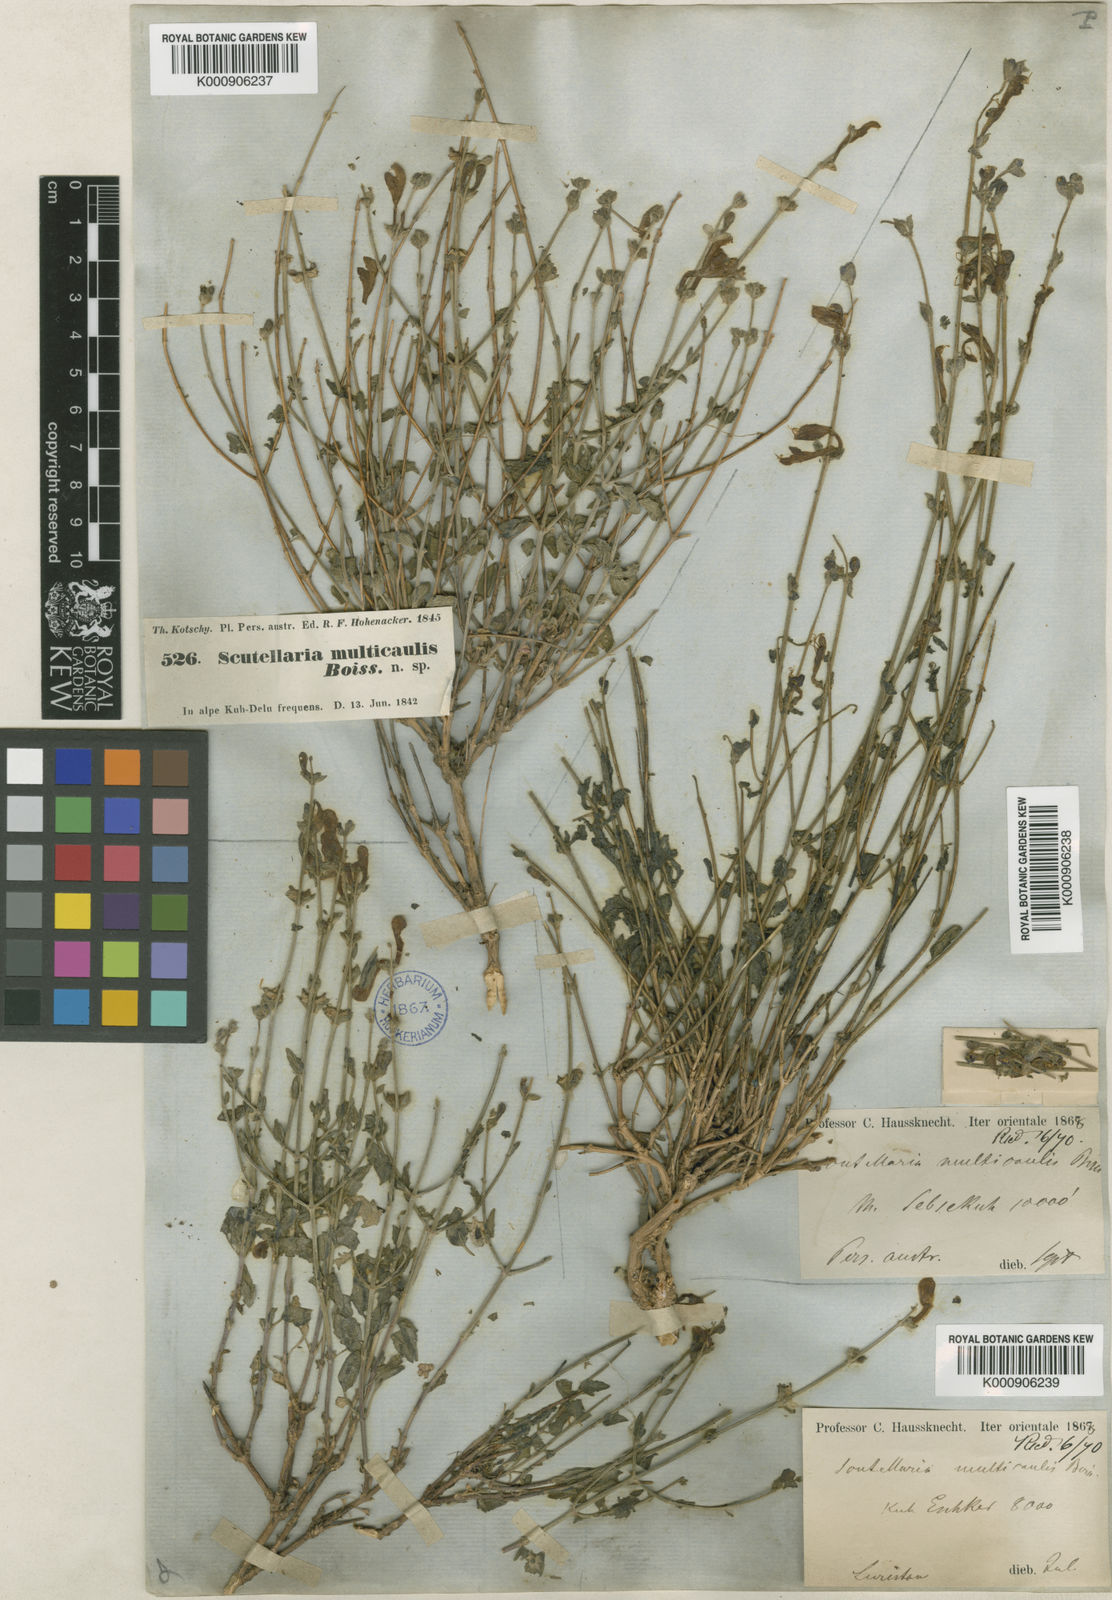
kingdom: Plantae
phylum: Tracheophyta
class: Magnoliopsida
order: Lamiales
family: Lamiaceae
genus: Scutellaria
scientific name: Scutellaria multicaulis
